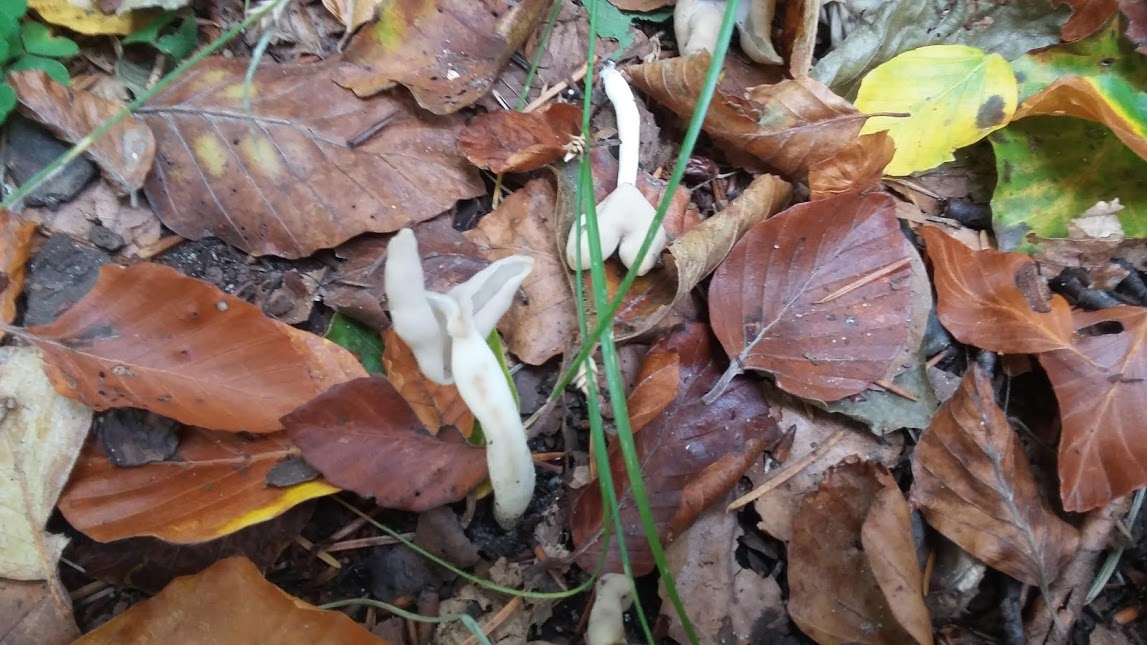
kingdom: Fungi
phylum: Ascomycota
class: Pezizomycetes
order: Pezizales
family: Helvellaceae
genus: Helvella
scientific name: Helvella
